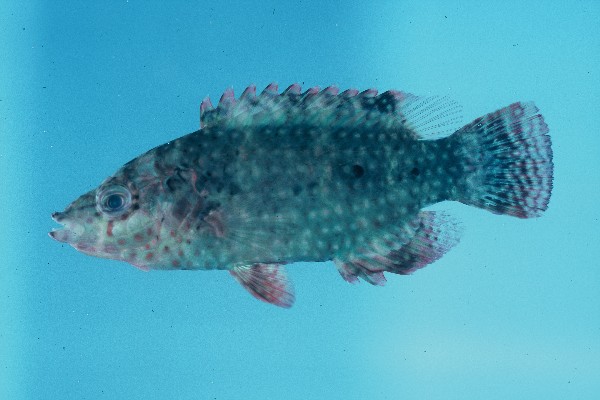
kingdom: Animalia
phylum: Chordata
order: Perciformes
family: Labridae
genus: Cheilinus
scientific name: Cheilinus chlorourus
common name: Floral wrasse
